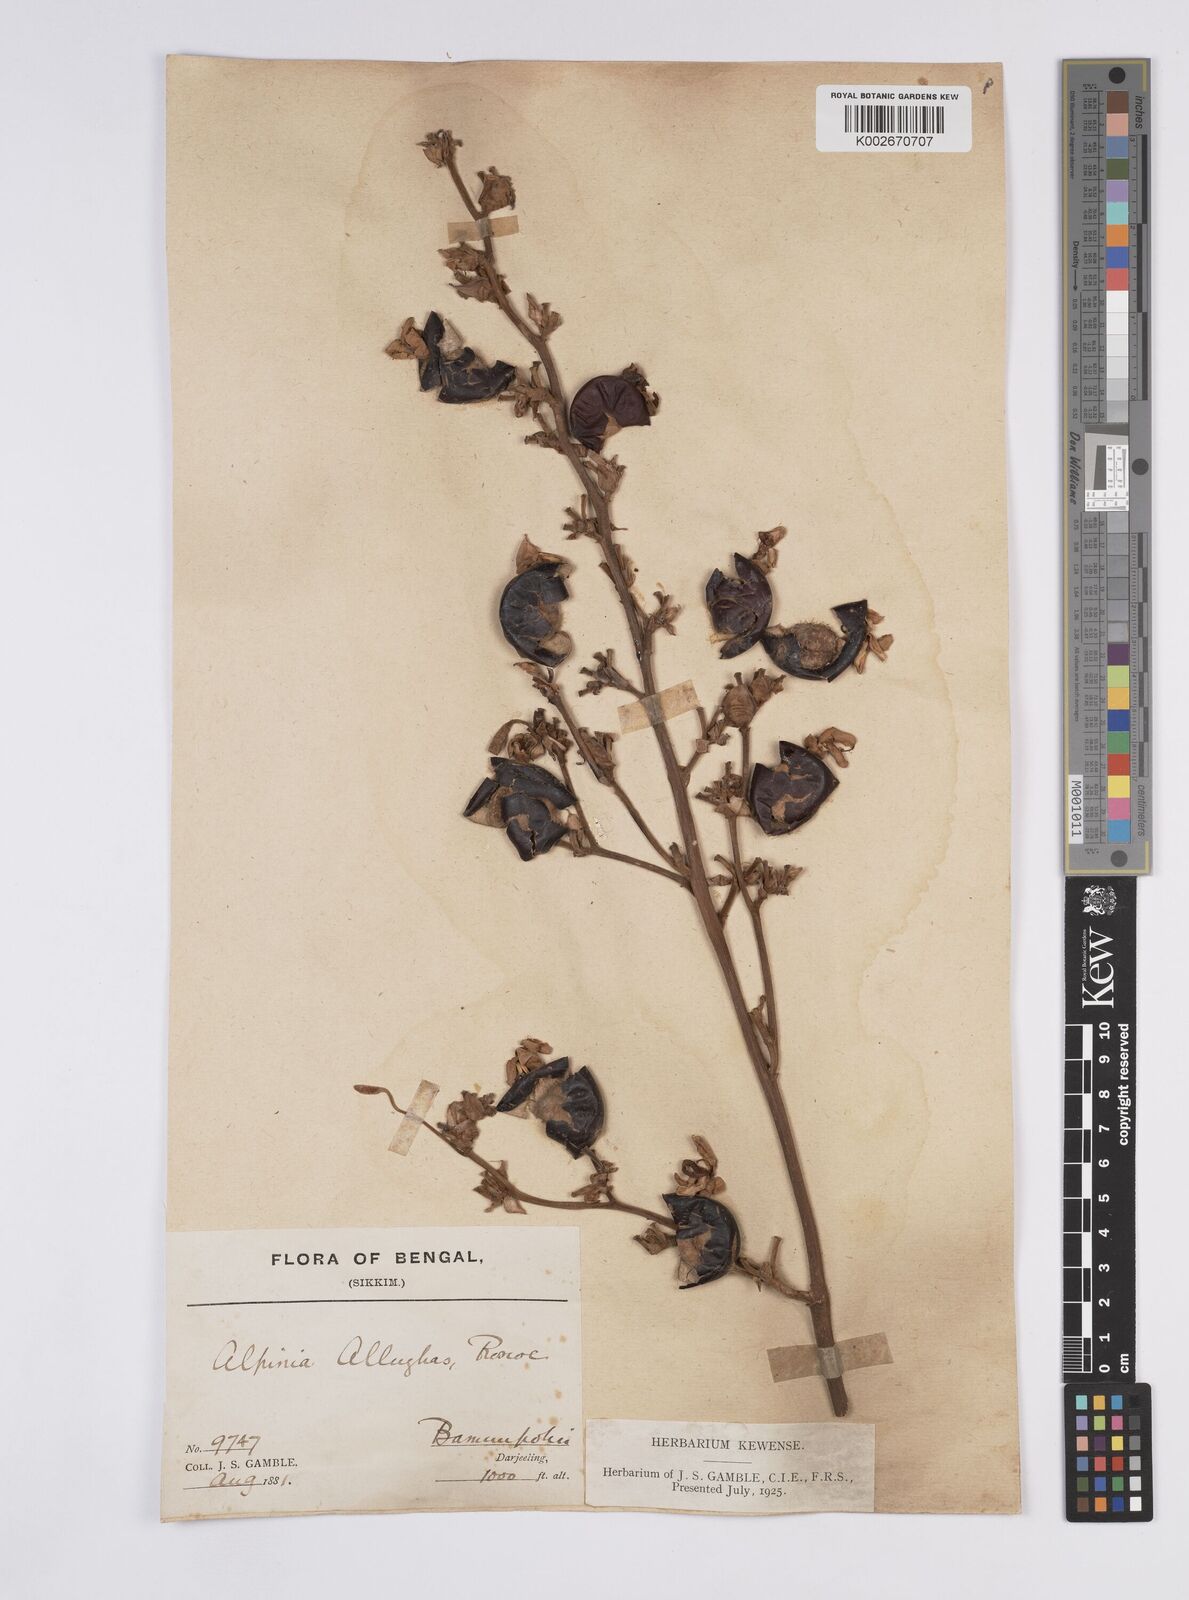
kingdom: Plantae
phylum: Tracheophyta
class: Liliopsida
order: Zingiberales
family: Zingiberaceae
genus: Alpinia
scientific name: Alpinia nigra
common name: Black fruited galanga
